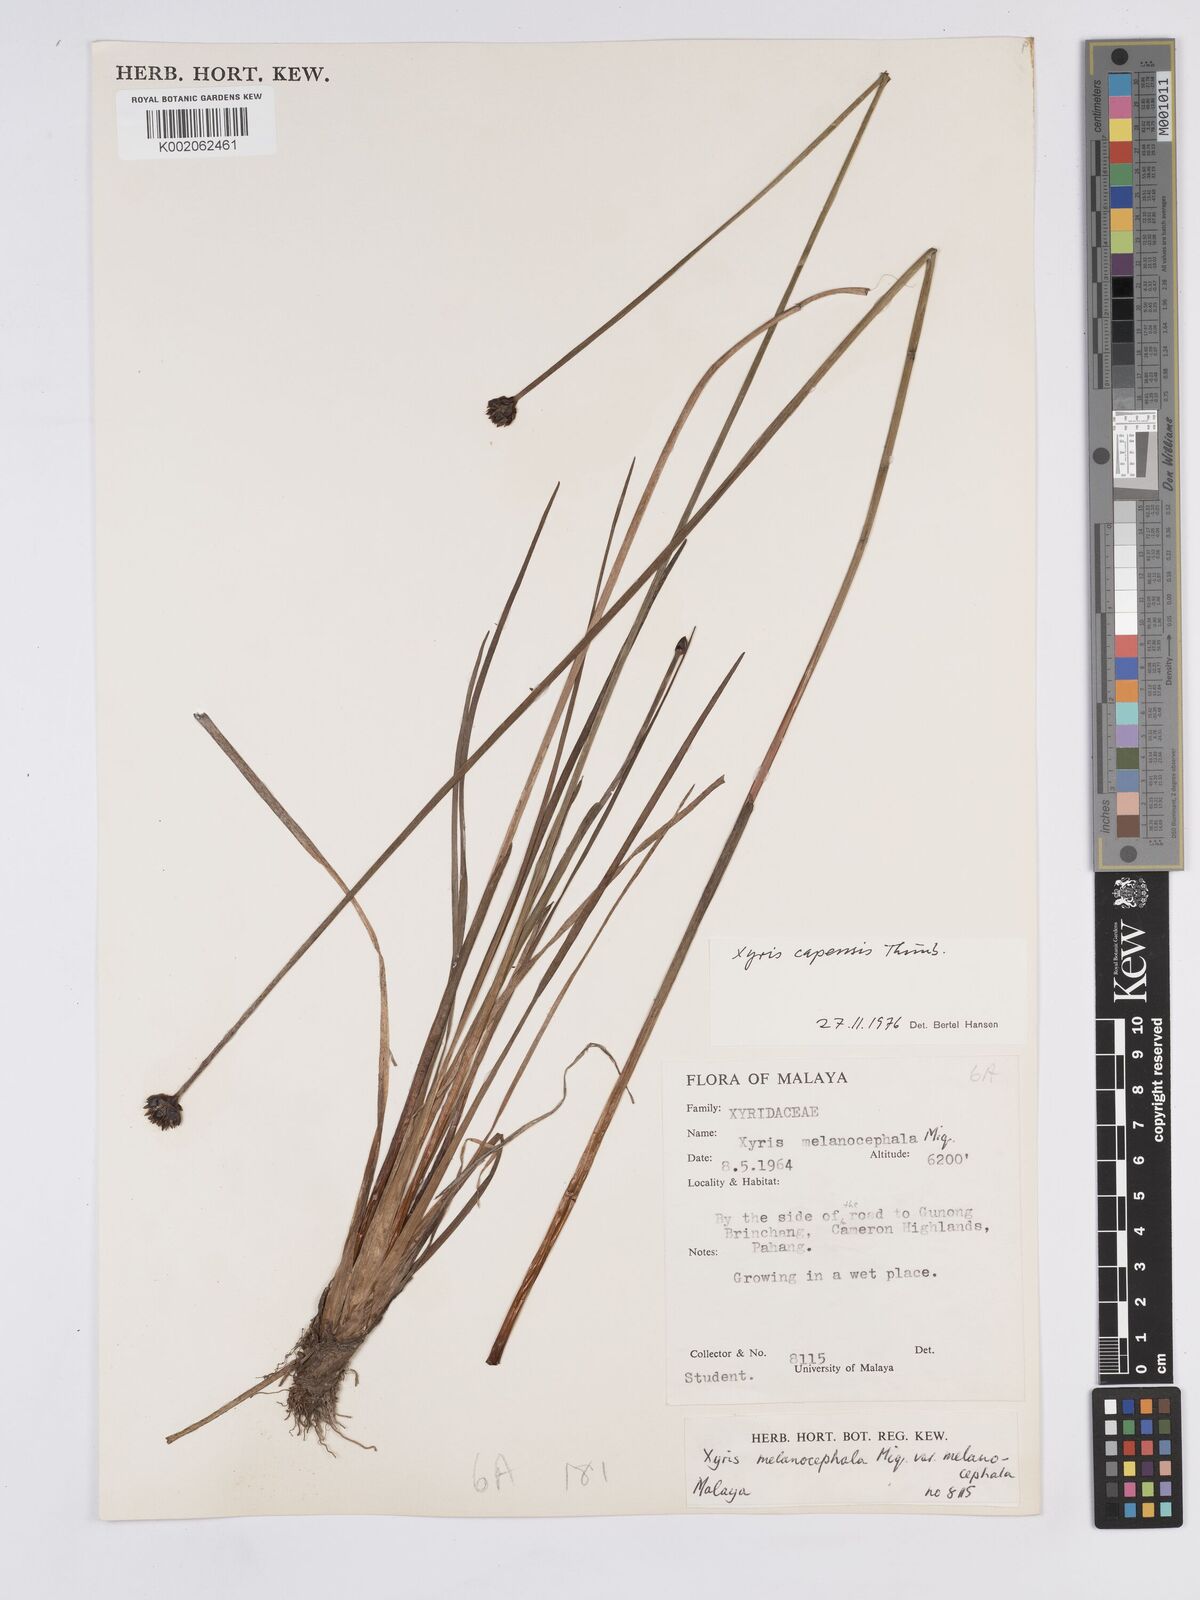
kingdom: Plantae
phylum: Tracheophyta
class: Liliopsida
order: Poales
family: Xyridaceae
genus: Xyris
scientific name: Xyris capensis
